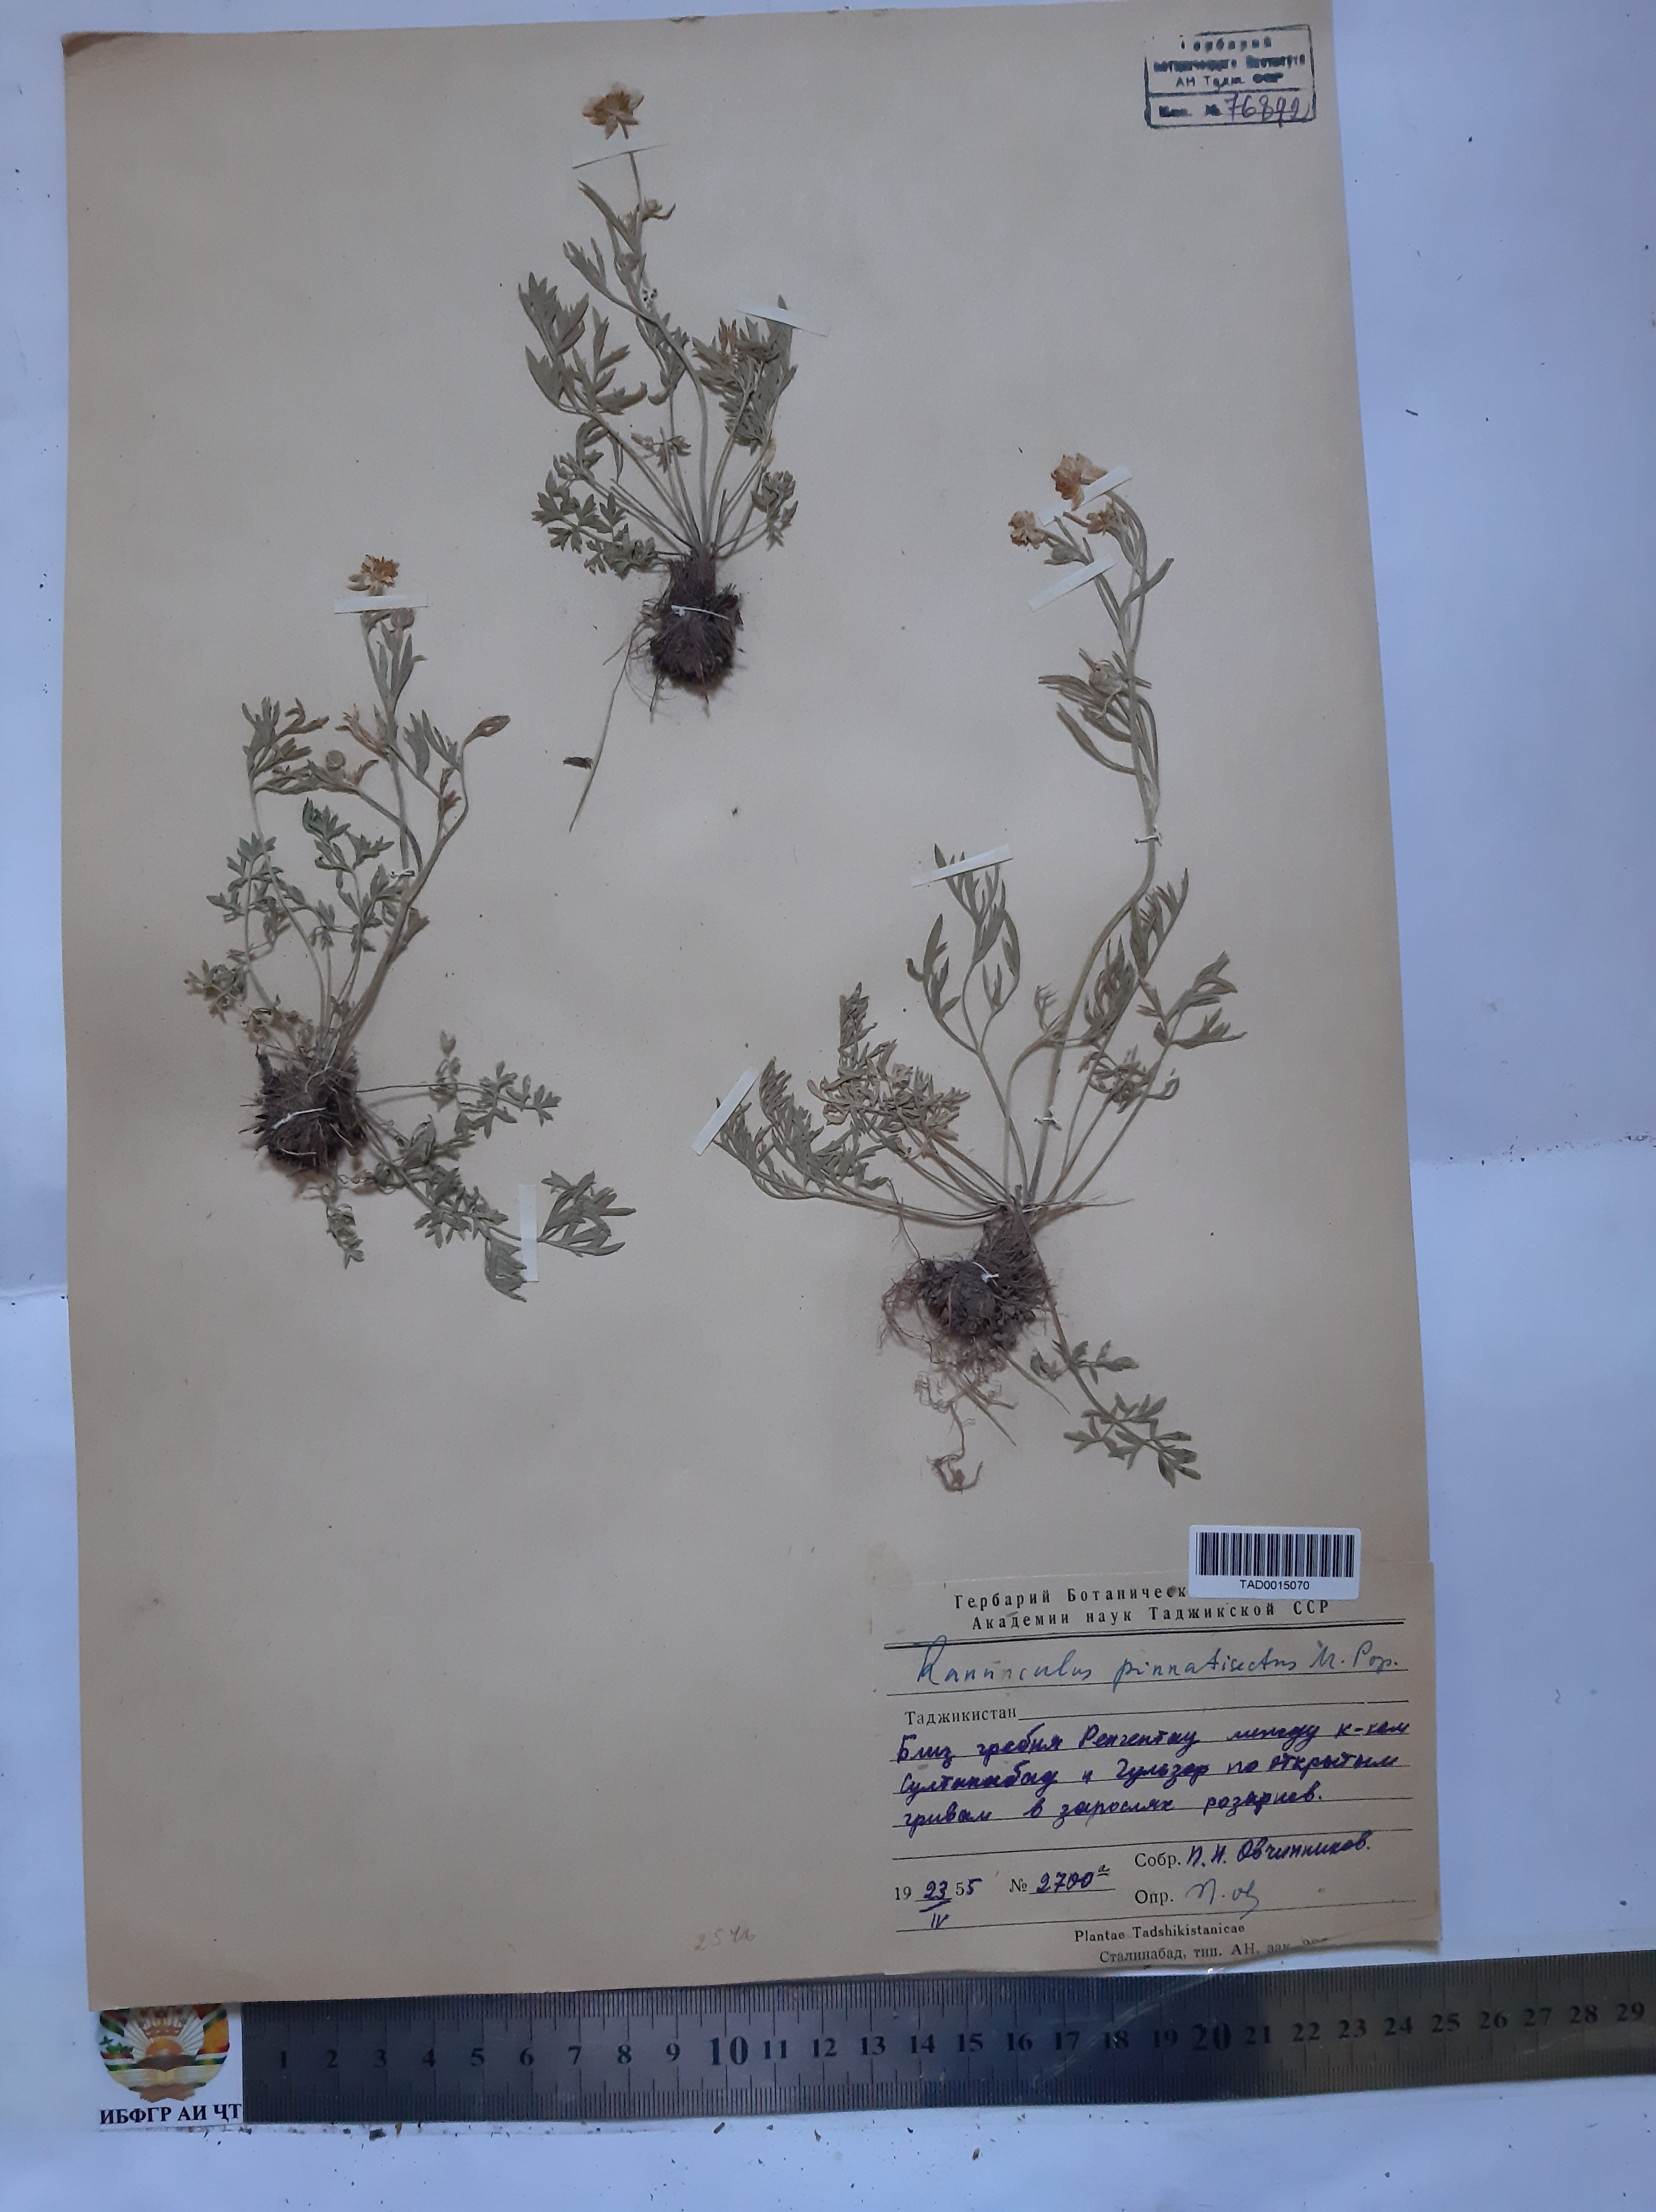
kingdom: Plantae
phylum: Tracheophyta
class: Magnoliopsida
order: Ranunculales
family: Ranunculaceae
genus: Ranunculus
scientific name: Ranunculus pinnatisectus
